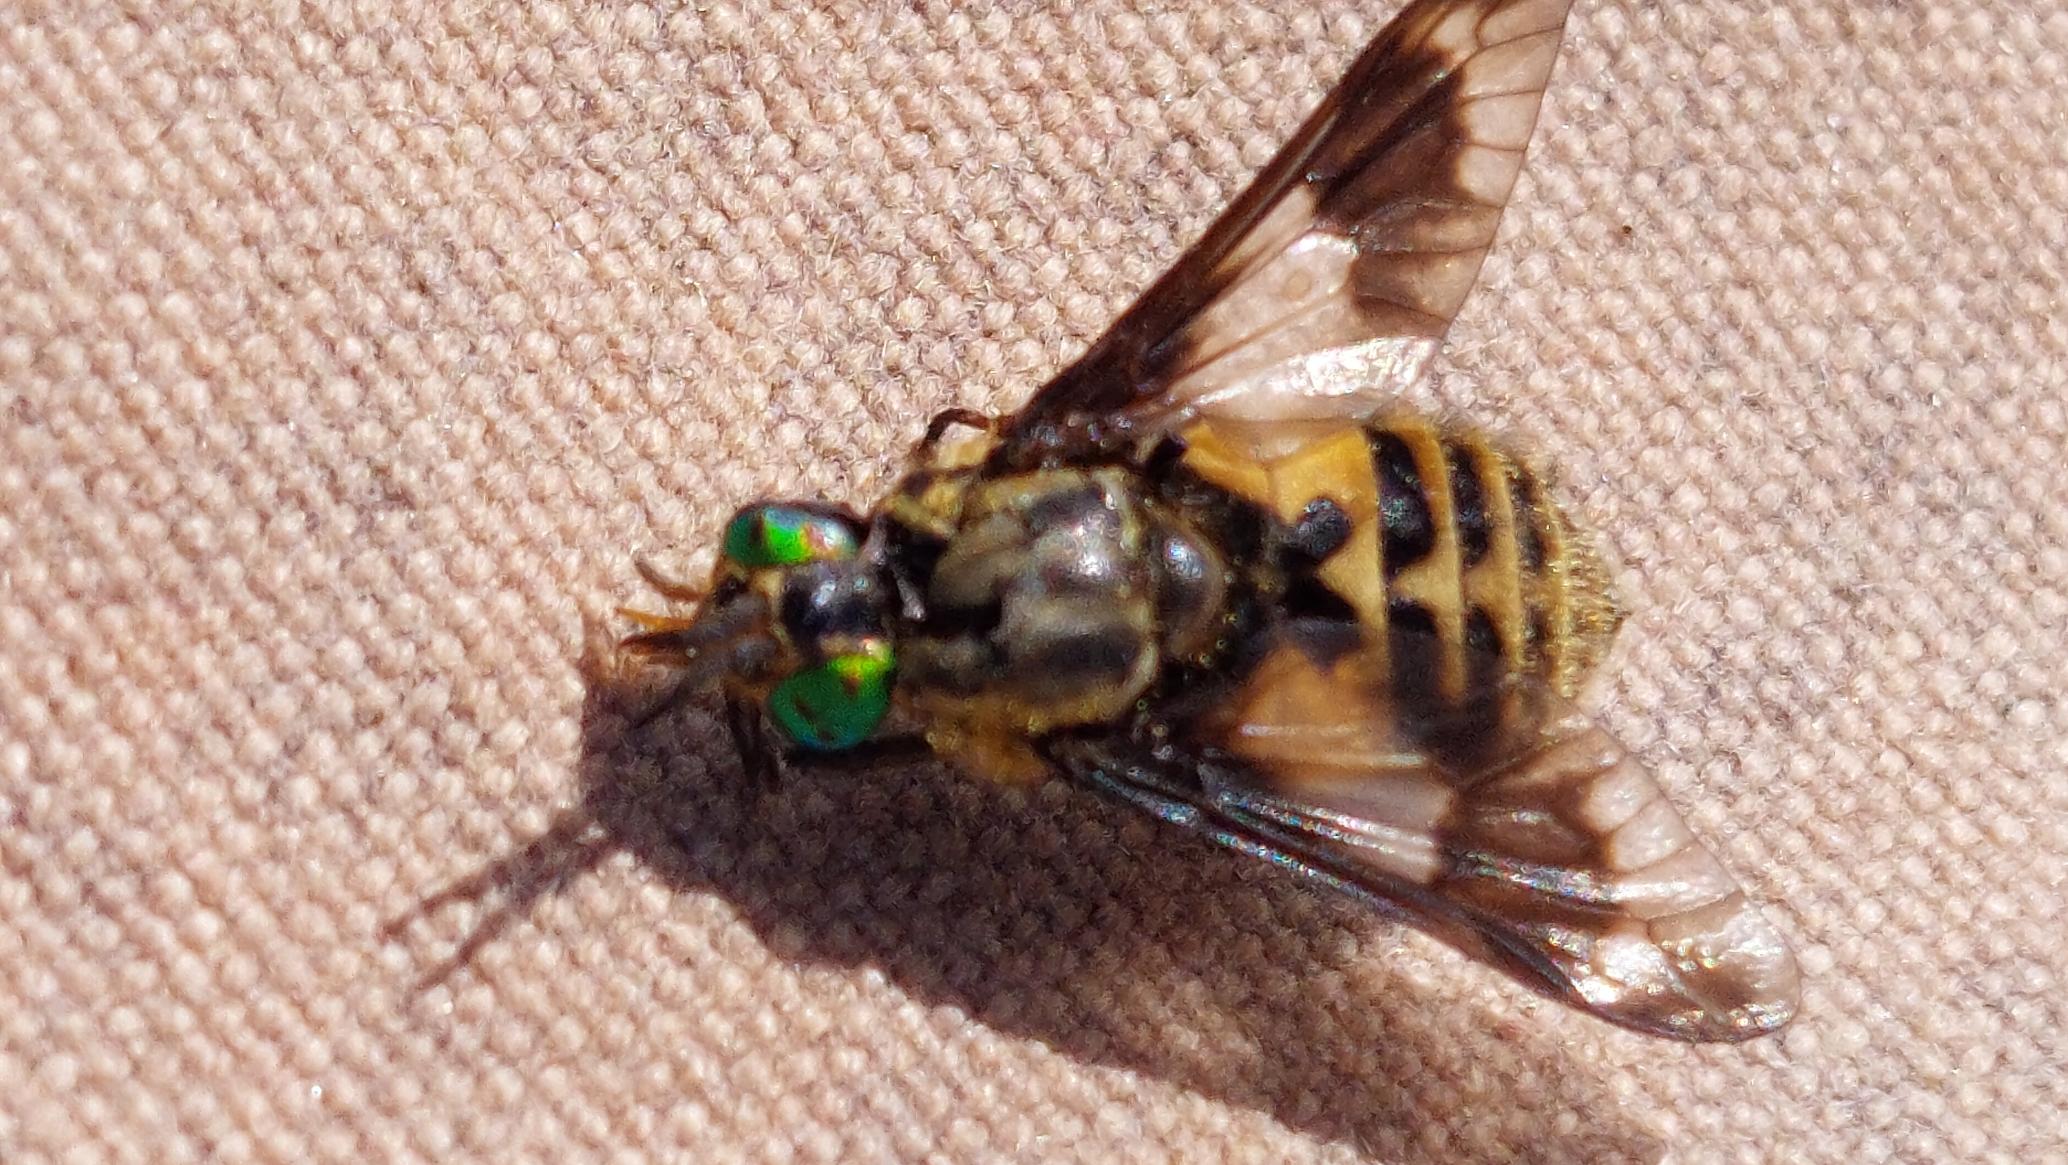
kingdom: Animalia
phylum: Arthropoda
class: Insecta
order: Diptera
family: Tabanidae
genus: Chrysops
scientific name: Chrysops relictus
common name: Guldklæg
